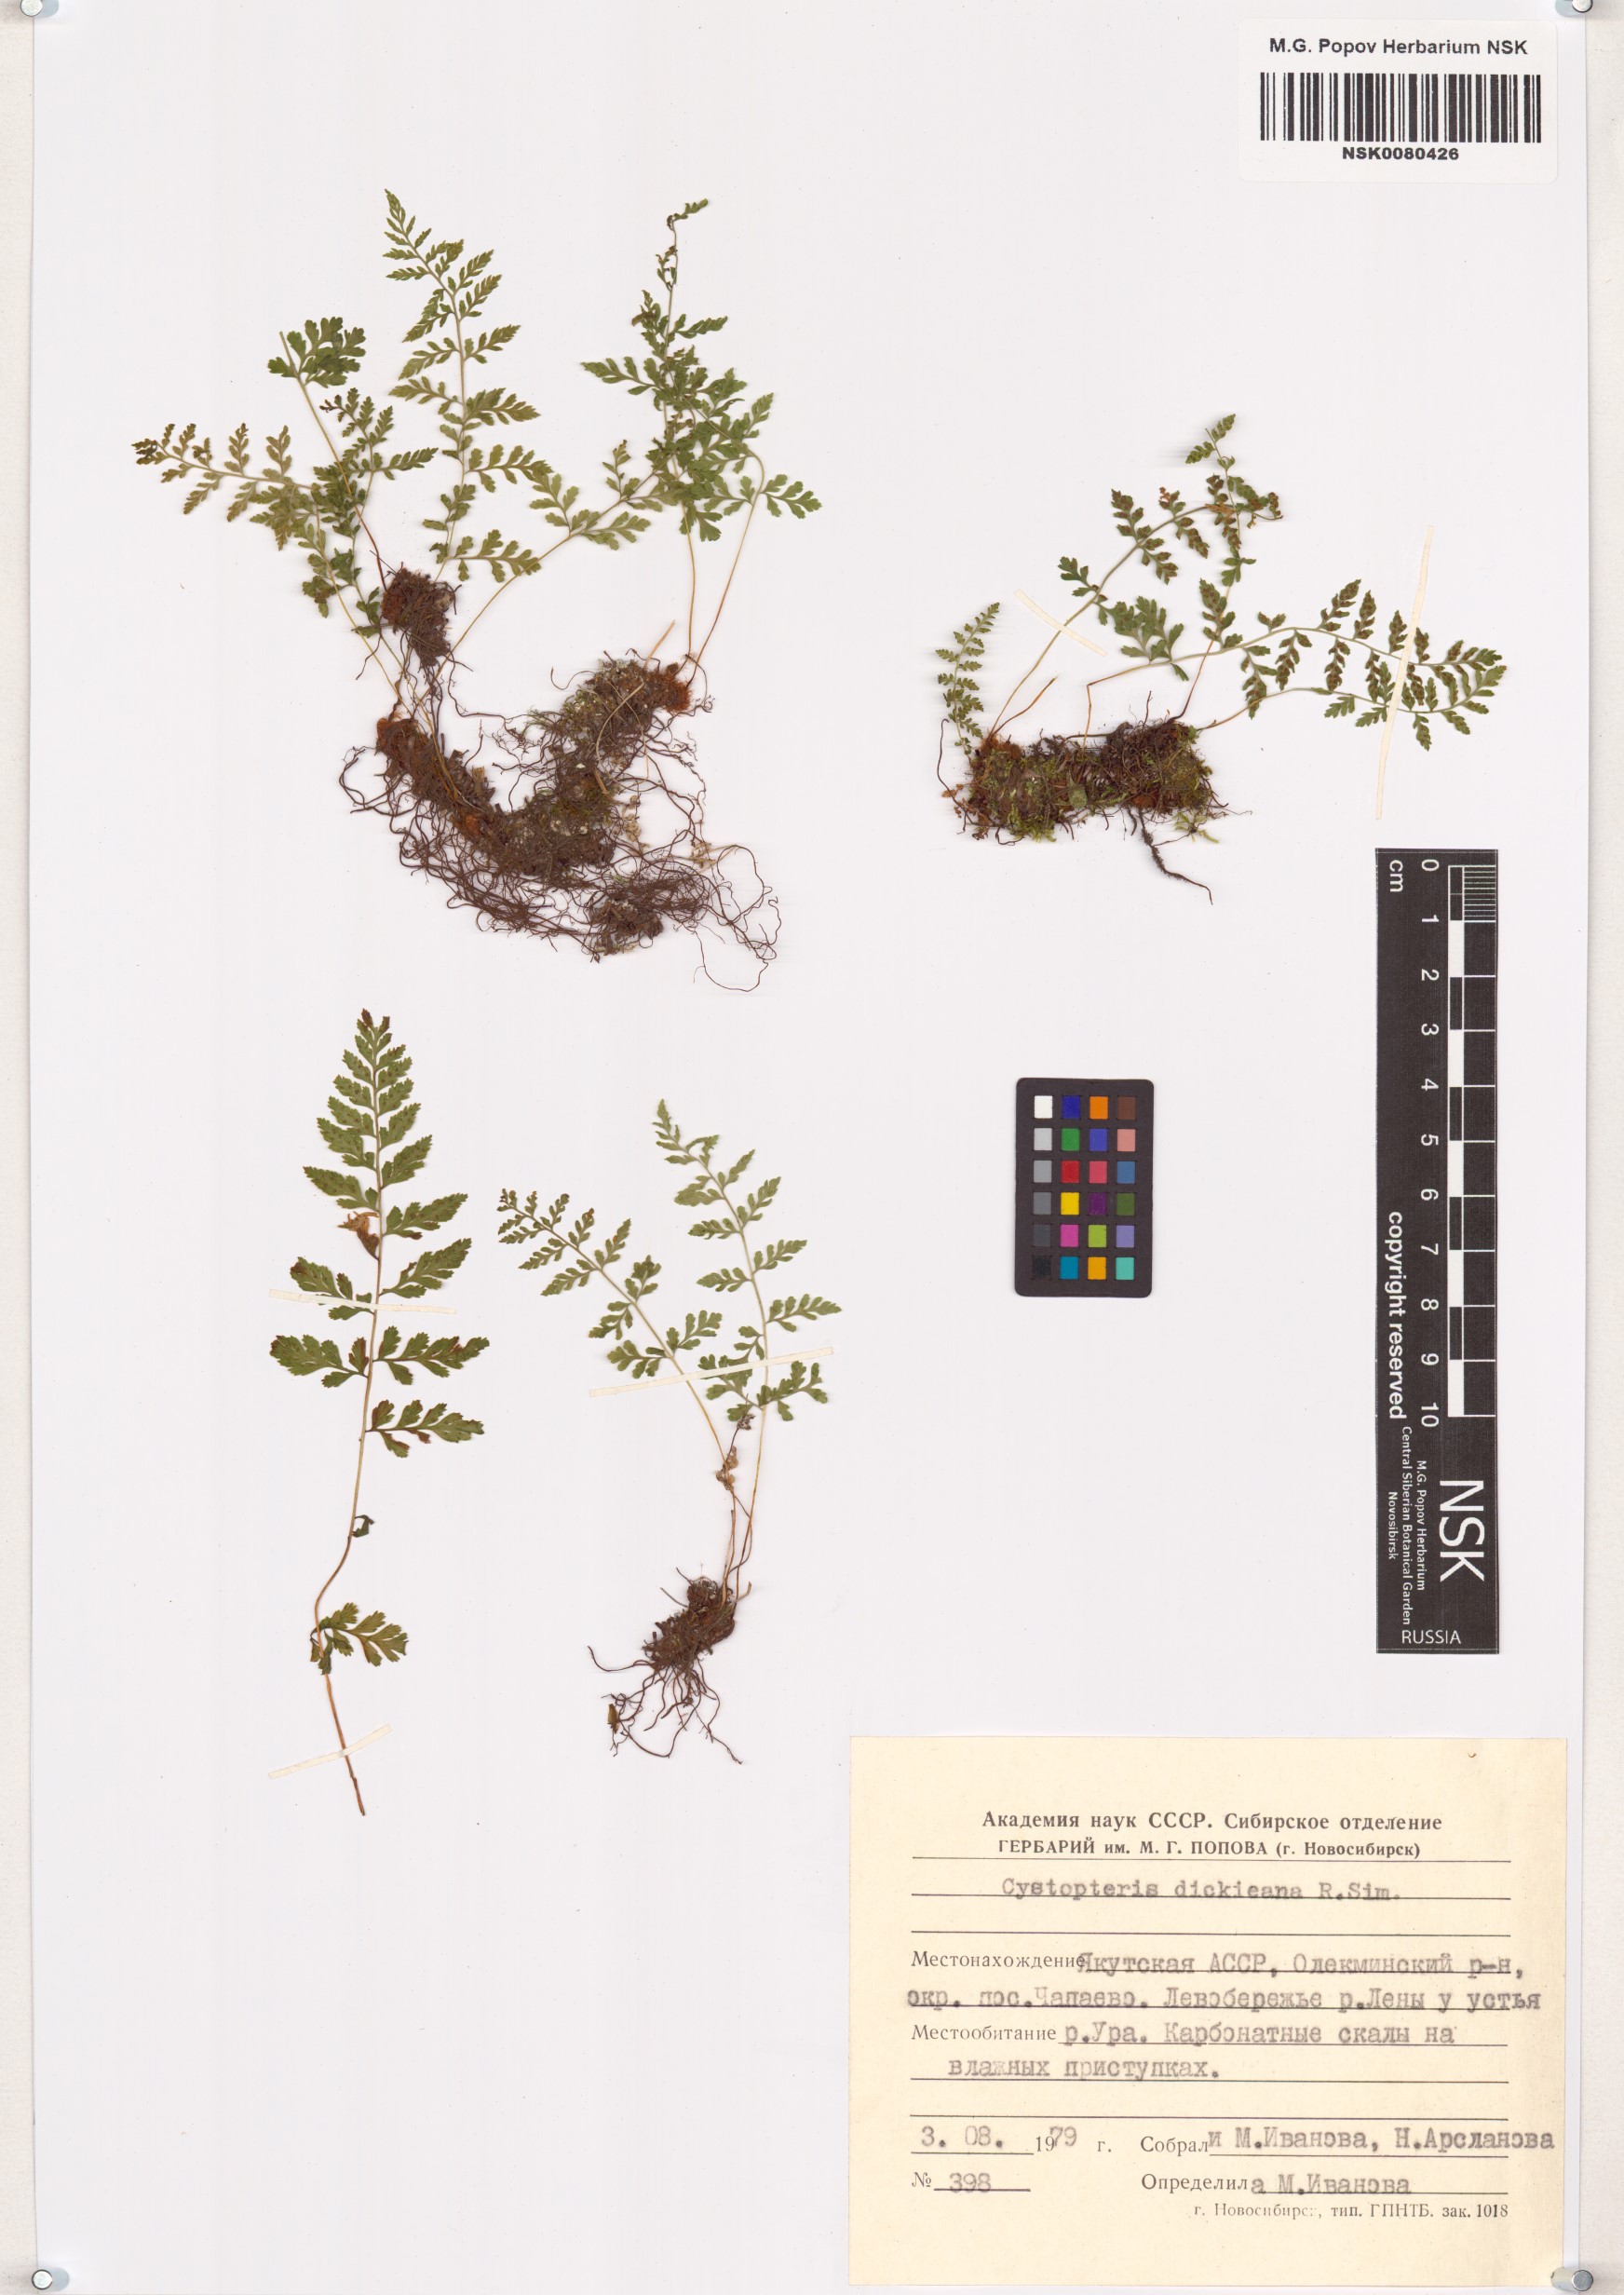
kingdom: Plantae
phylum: Tracheophyta
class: Polypodiopsida
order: Polypodiales
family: Cystopteridaceae
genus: Cystopteris
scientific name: Cystopteris dickieana
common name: Dickie's bladder-fern
